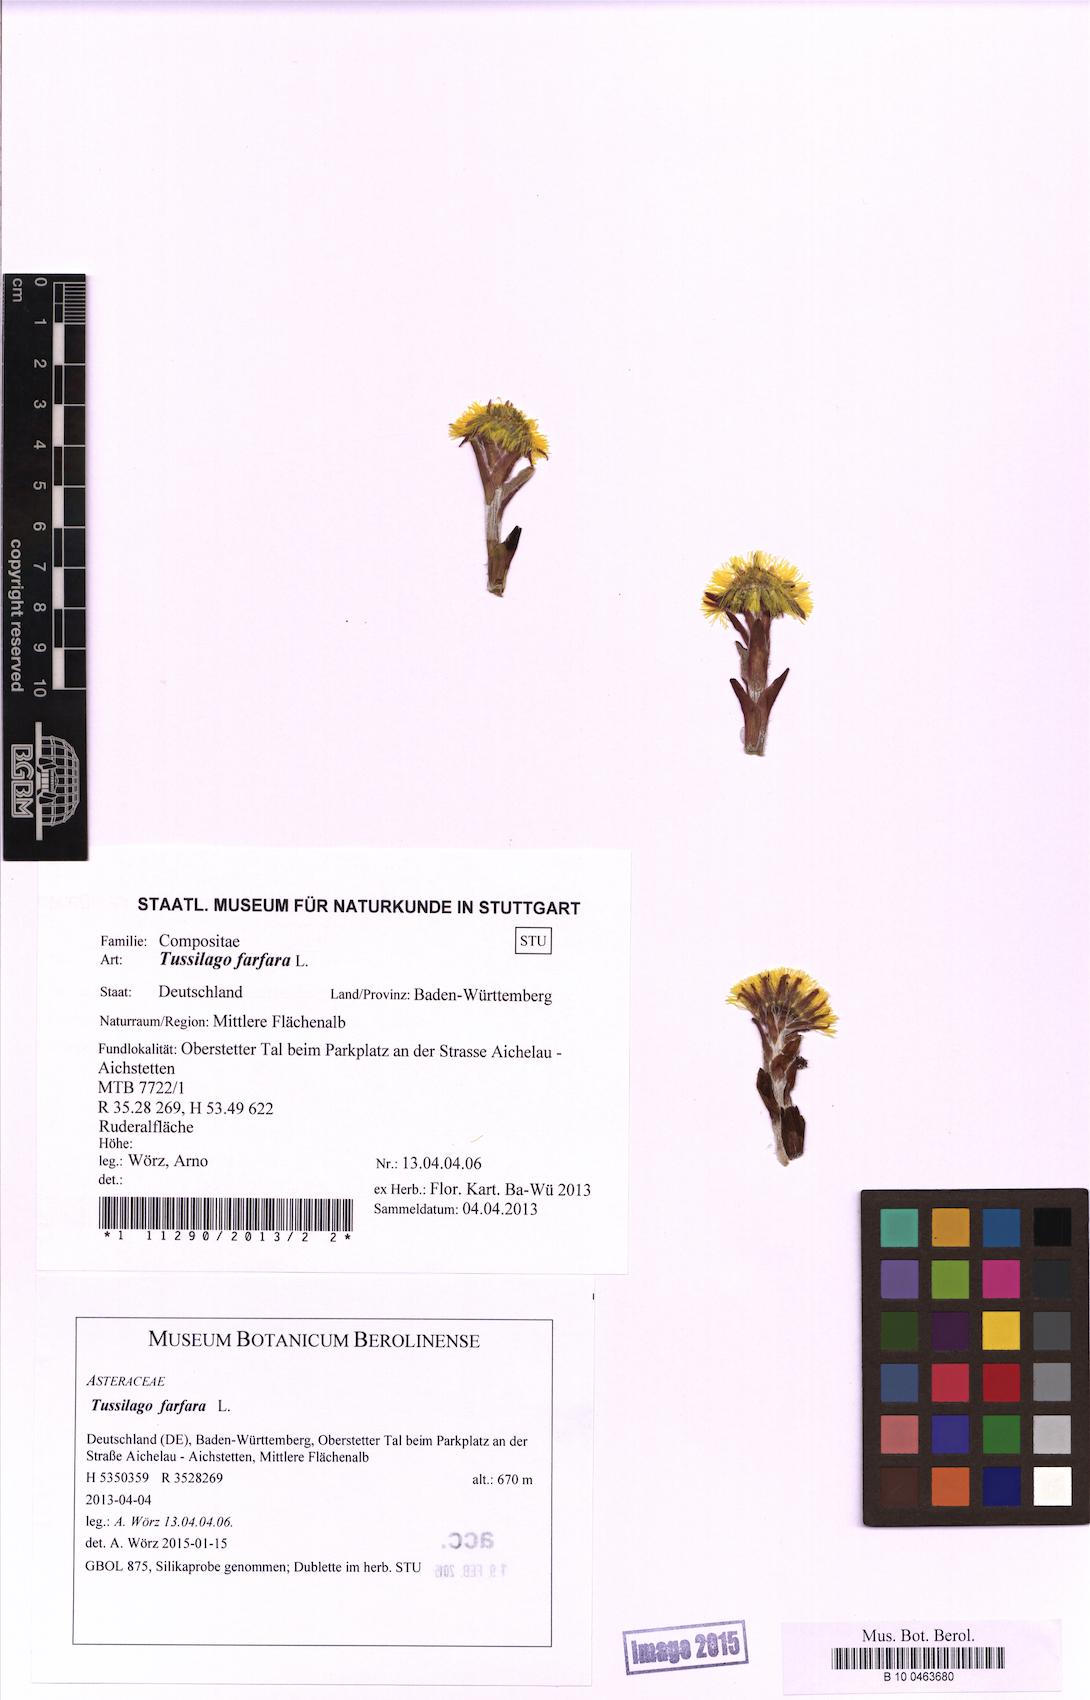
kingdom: Plantae
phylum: Tracheophyta
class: Magnoliopsida
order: Asterales
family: Asteraceae
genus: Tussilago
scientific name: Tussilago farfara
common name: Coltsfoot
